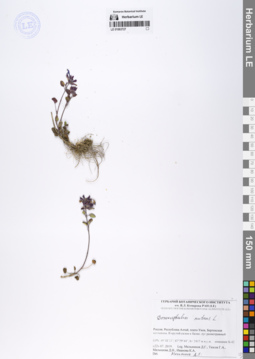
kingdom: Plantae
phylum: Tracheophyta
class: Magnoliopsida
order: Lamiales
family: Lamiaceae
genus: Dracocephalum
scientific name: Dracocephalum nutans
